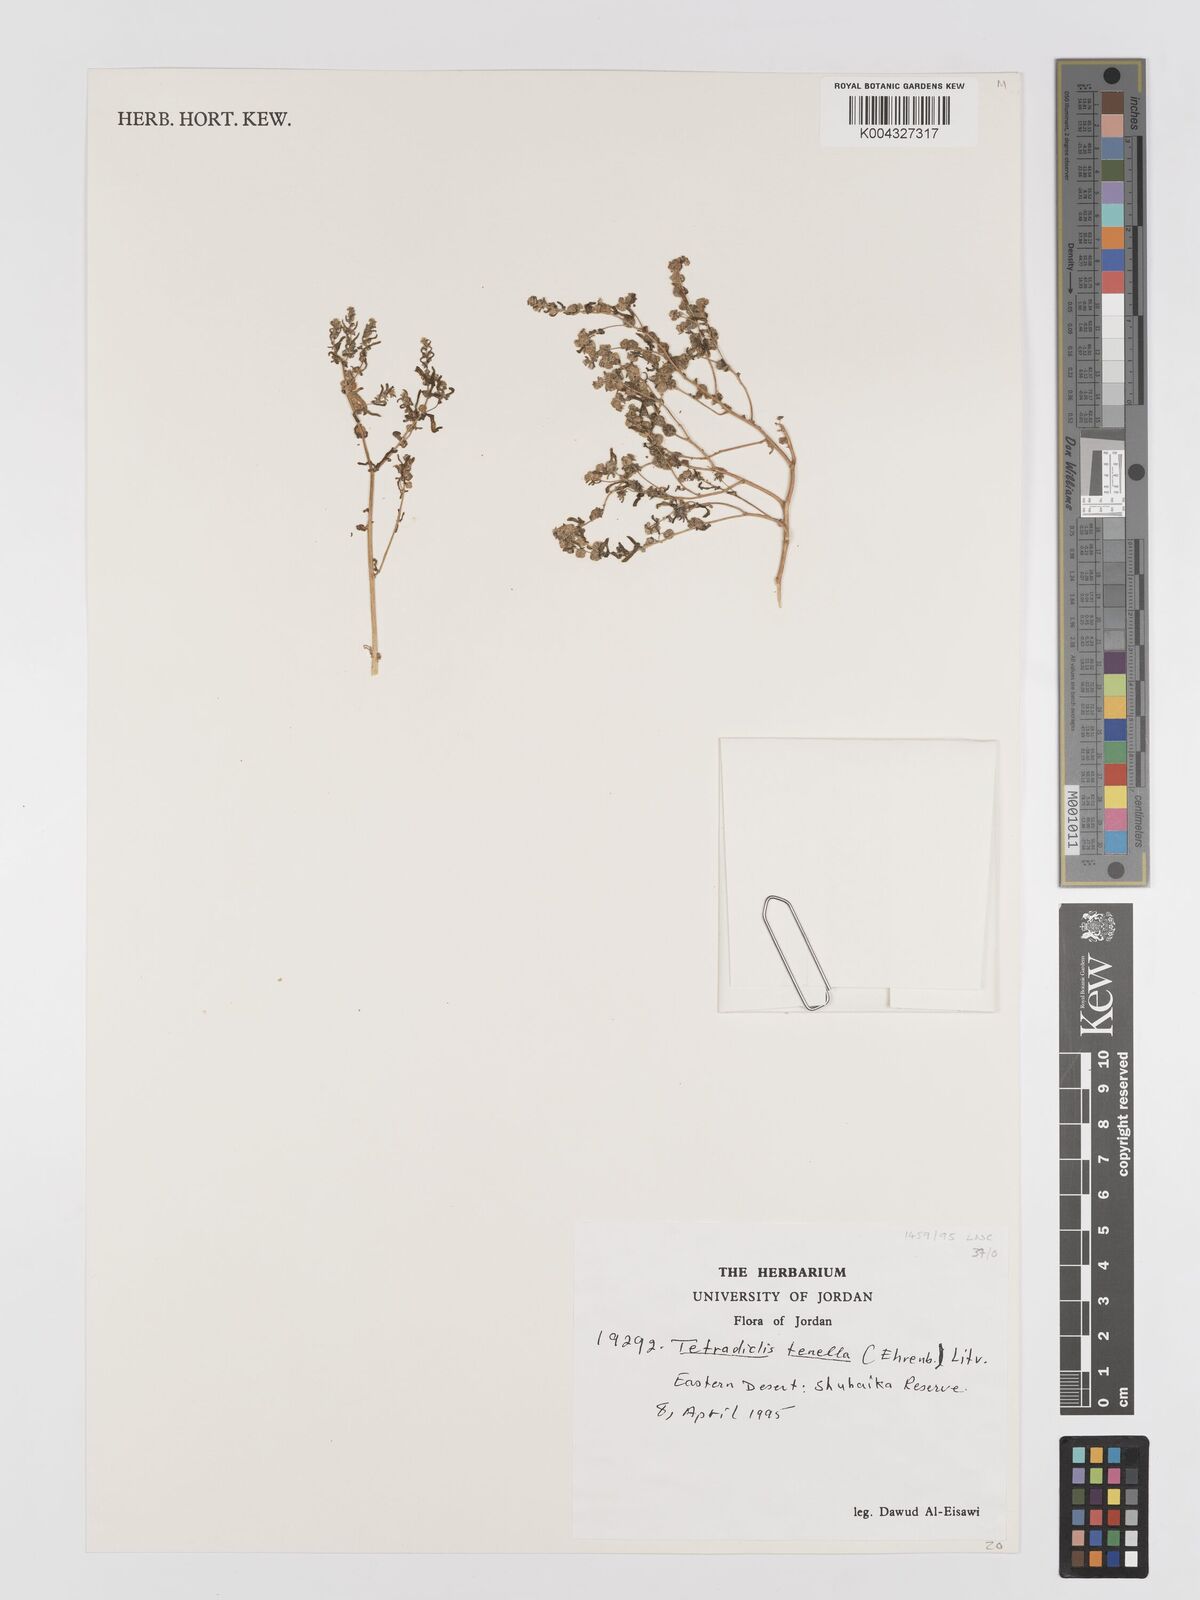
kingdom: Plantae
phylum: Tracheophyta
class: Magnoliopsida
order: Sapindales
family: Tetradiclidaceae
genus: Tetradiclis
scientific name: Tetradiclis tenella
